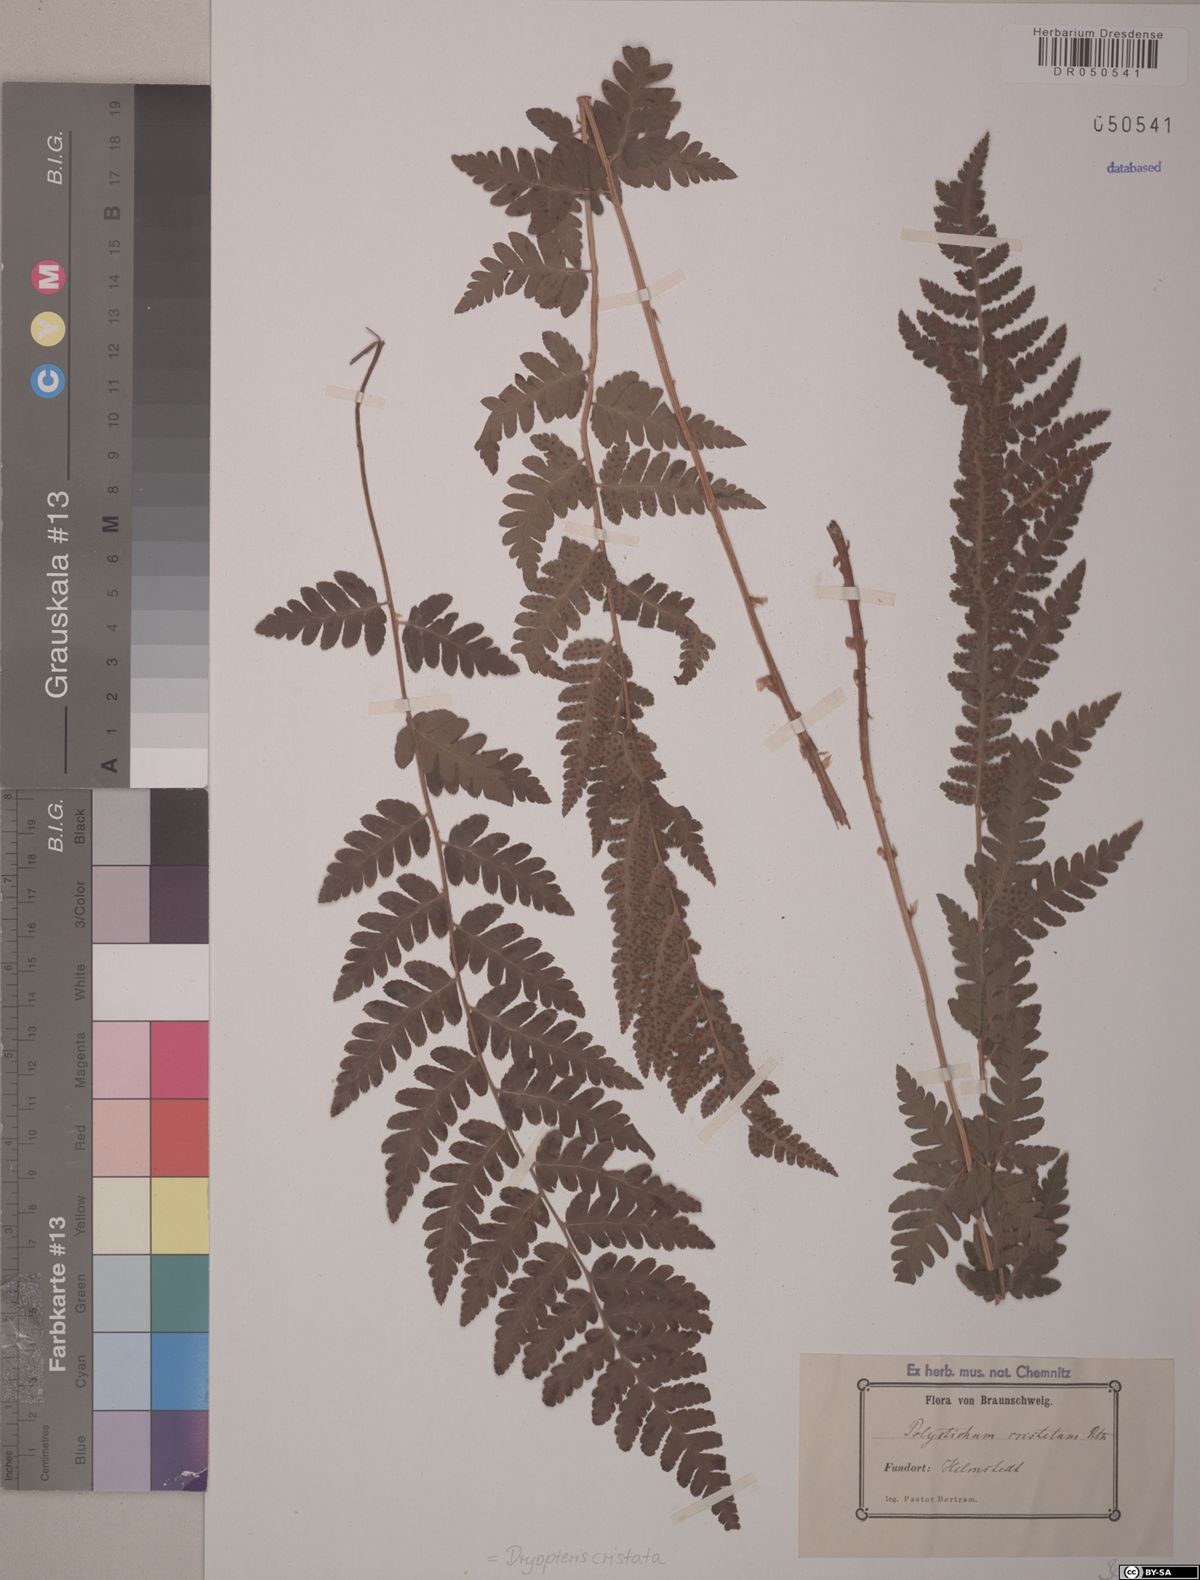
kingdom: Plantae
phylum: Tracheophyta
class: Polypodiopsida
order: Polypodiales
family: Dryopteridaceae
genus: Dryopteris
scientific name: Dryopteris cristata
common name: Crested wood fern
